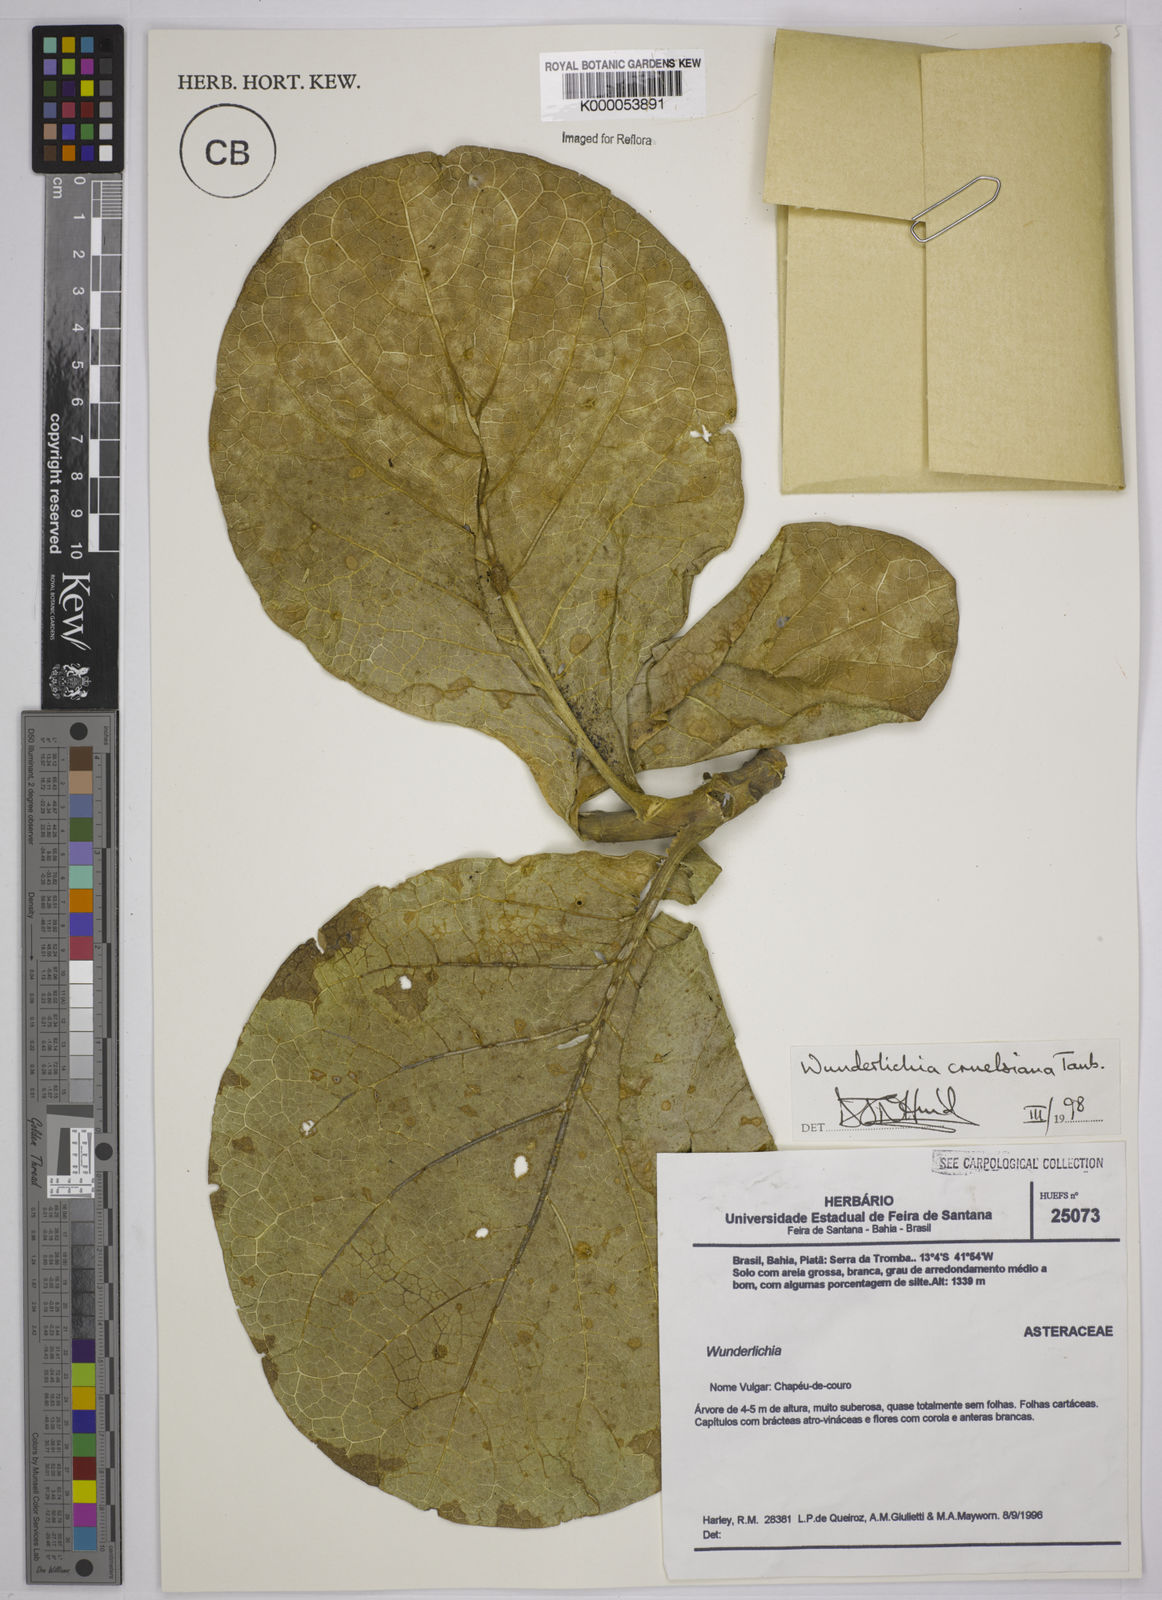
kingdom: Plantae
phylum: Tracheophyta
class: Magnoliopsida
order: Asterales
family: Asteraceae
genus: Wunderlichia
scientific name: Wunderlichia
